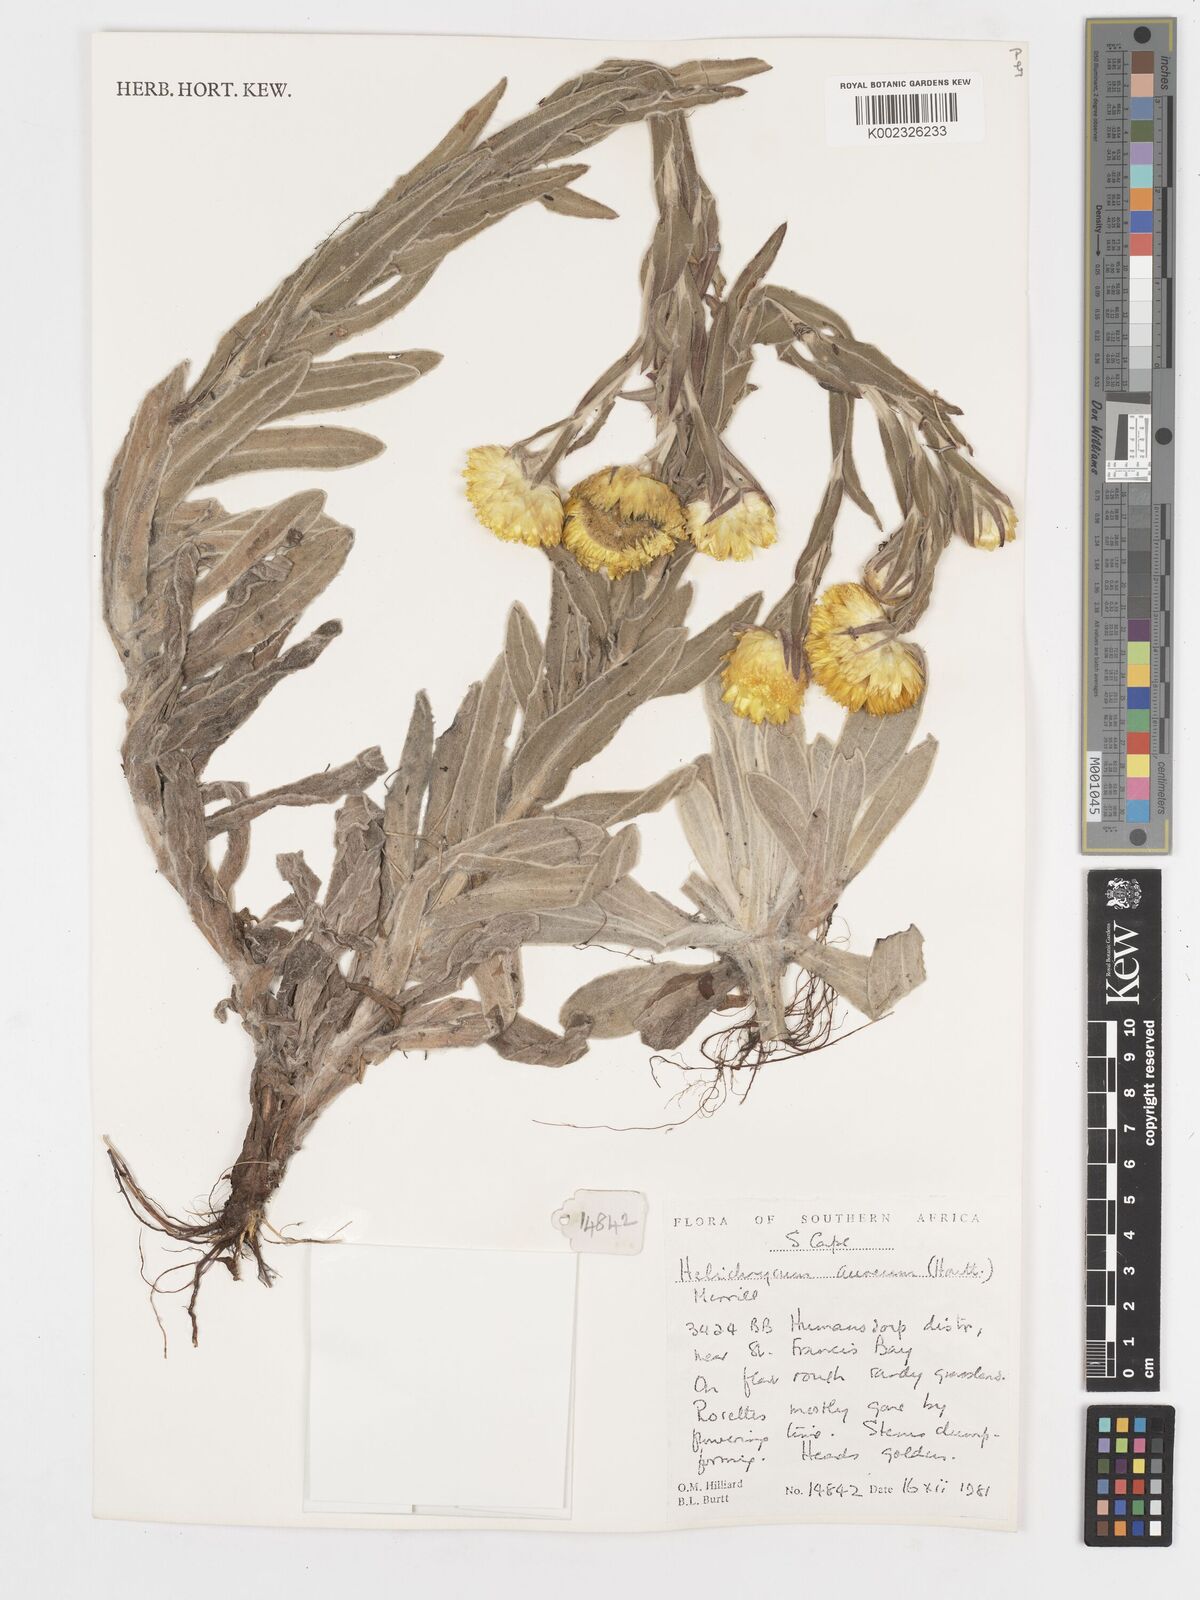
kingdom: Plantae
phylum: Tracheophyta
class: Magnoliopsida
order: Asterales
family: Asteraceae
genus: Helichrysum
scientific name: Helichrysum aureum
